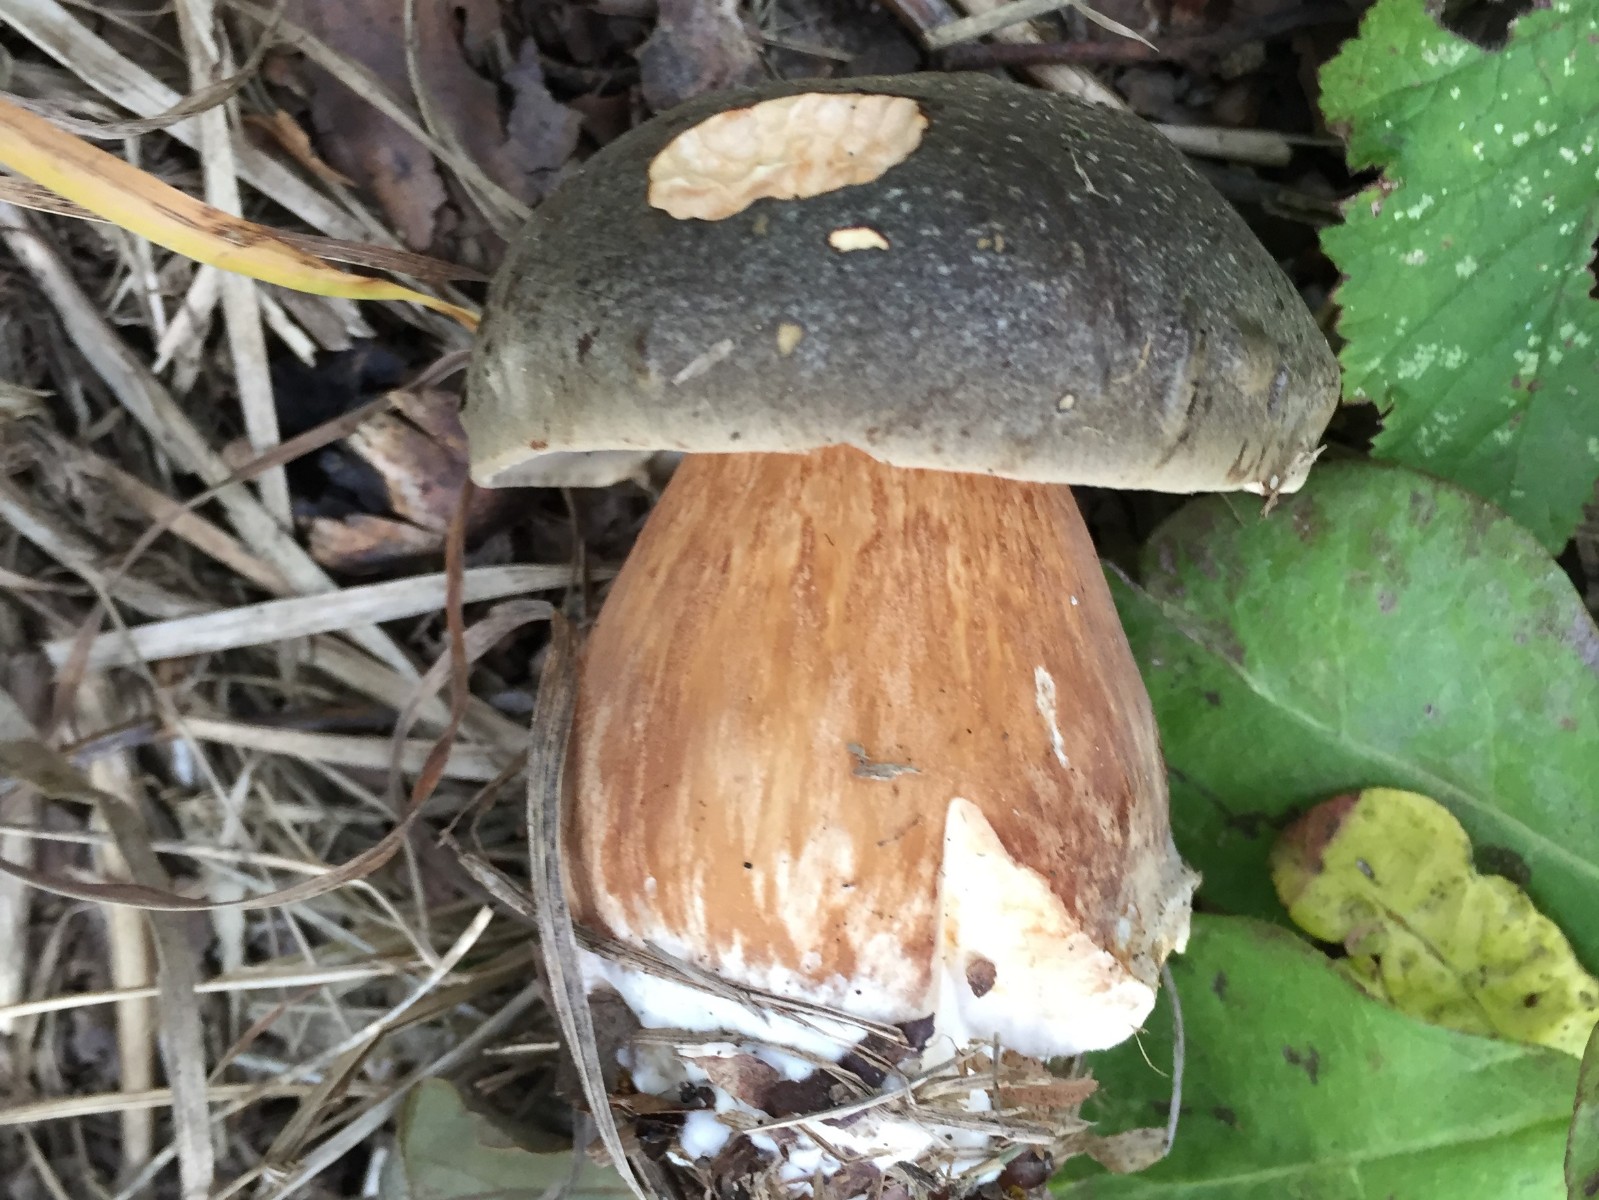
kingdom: Fungi
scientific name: Fungi
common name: bronze-rørhat
